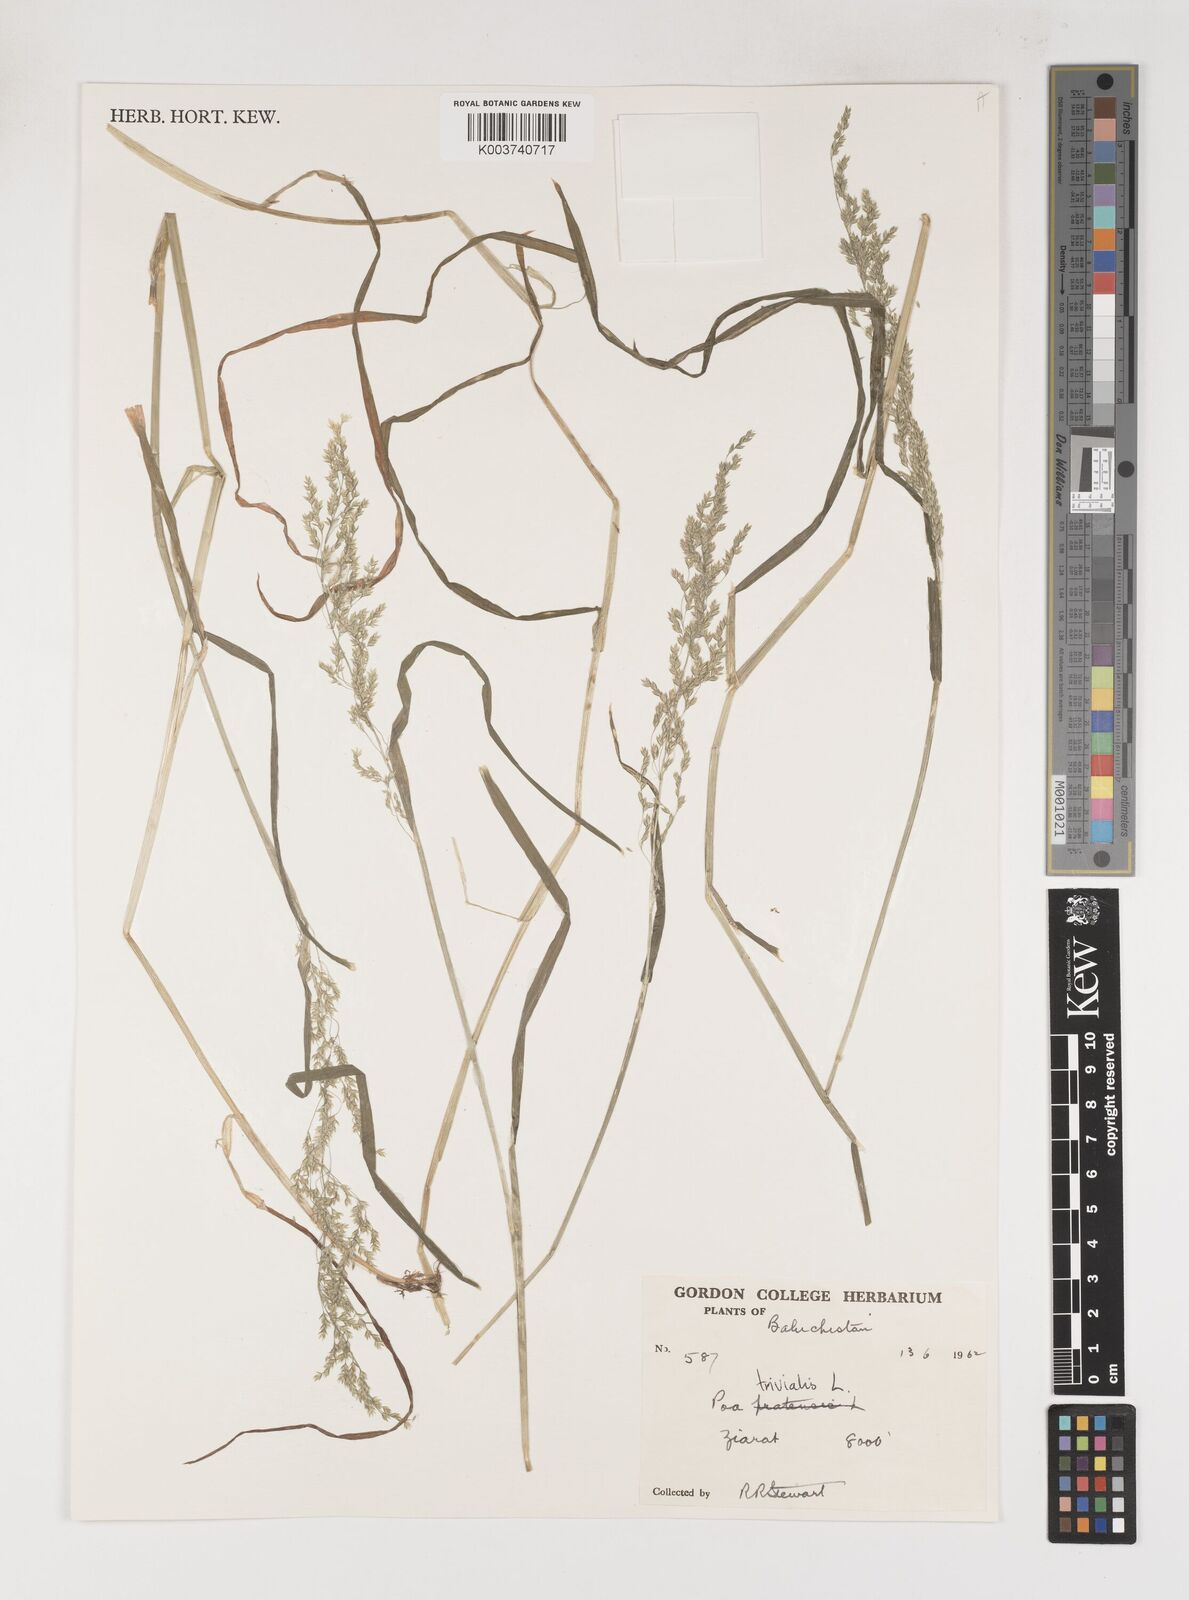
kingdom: Plantae
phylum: Tracheophyta
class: Liliopsida
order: Poales
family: Poaceae
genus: Poa
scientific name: Poa trivialis
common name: Rough bluegrass
